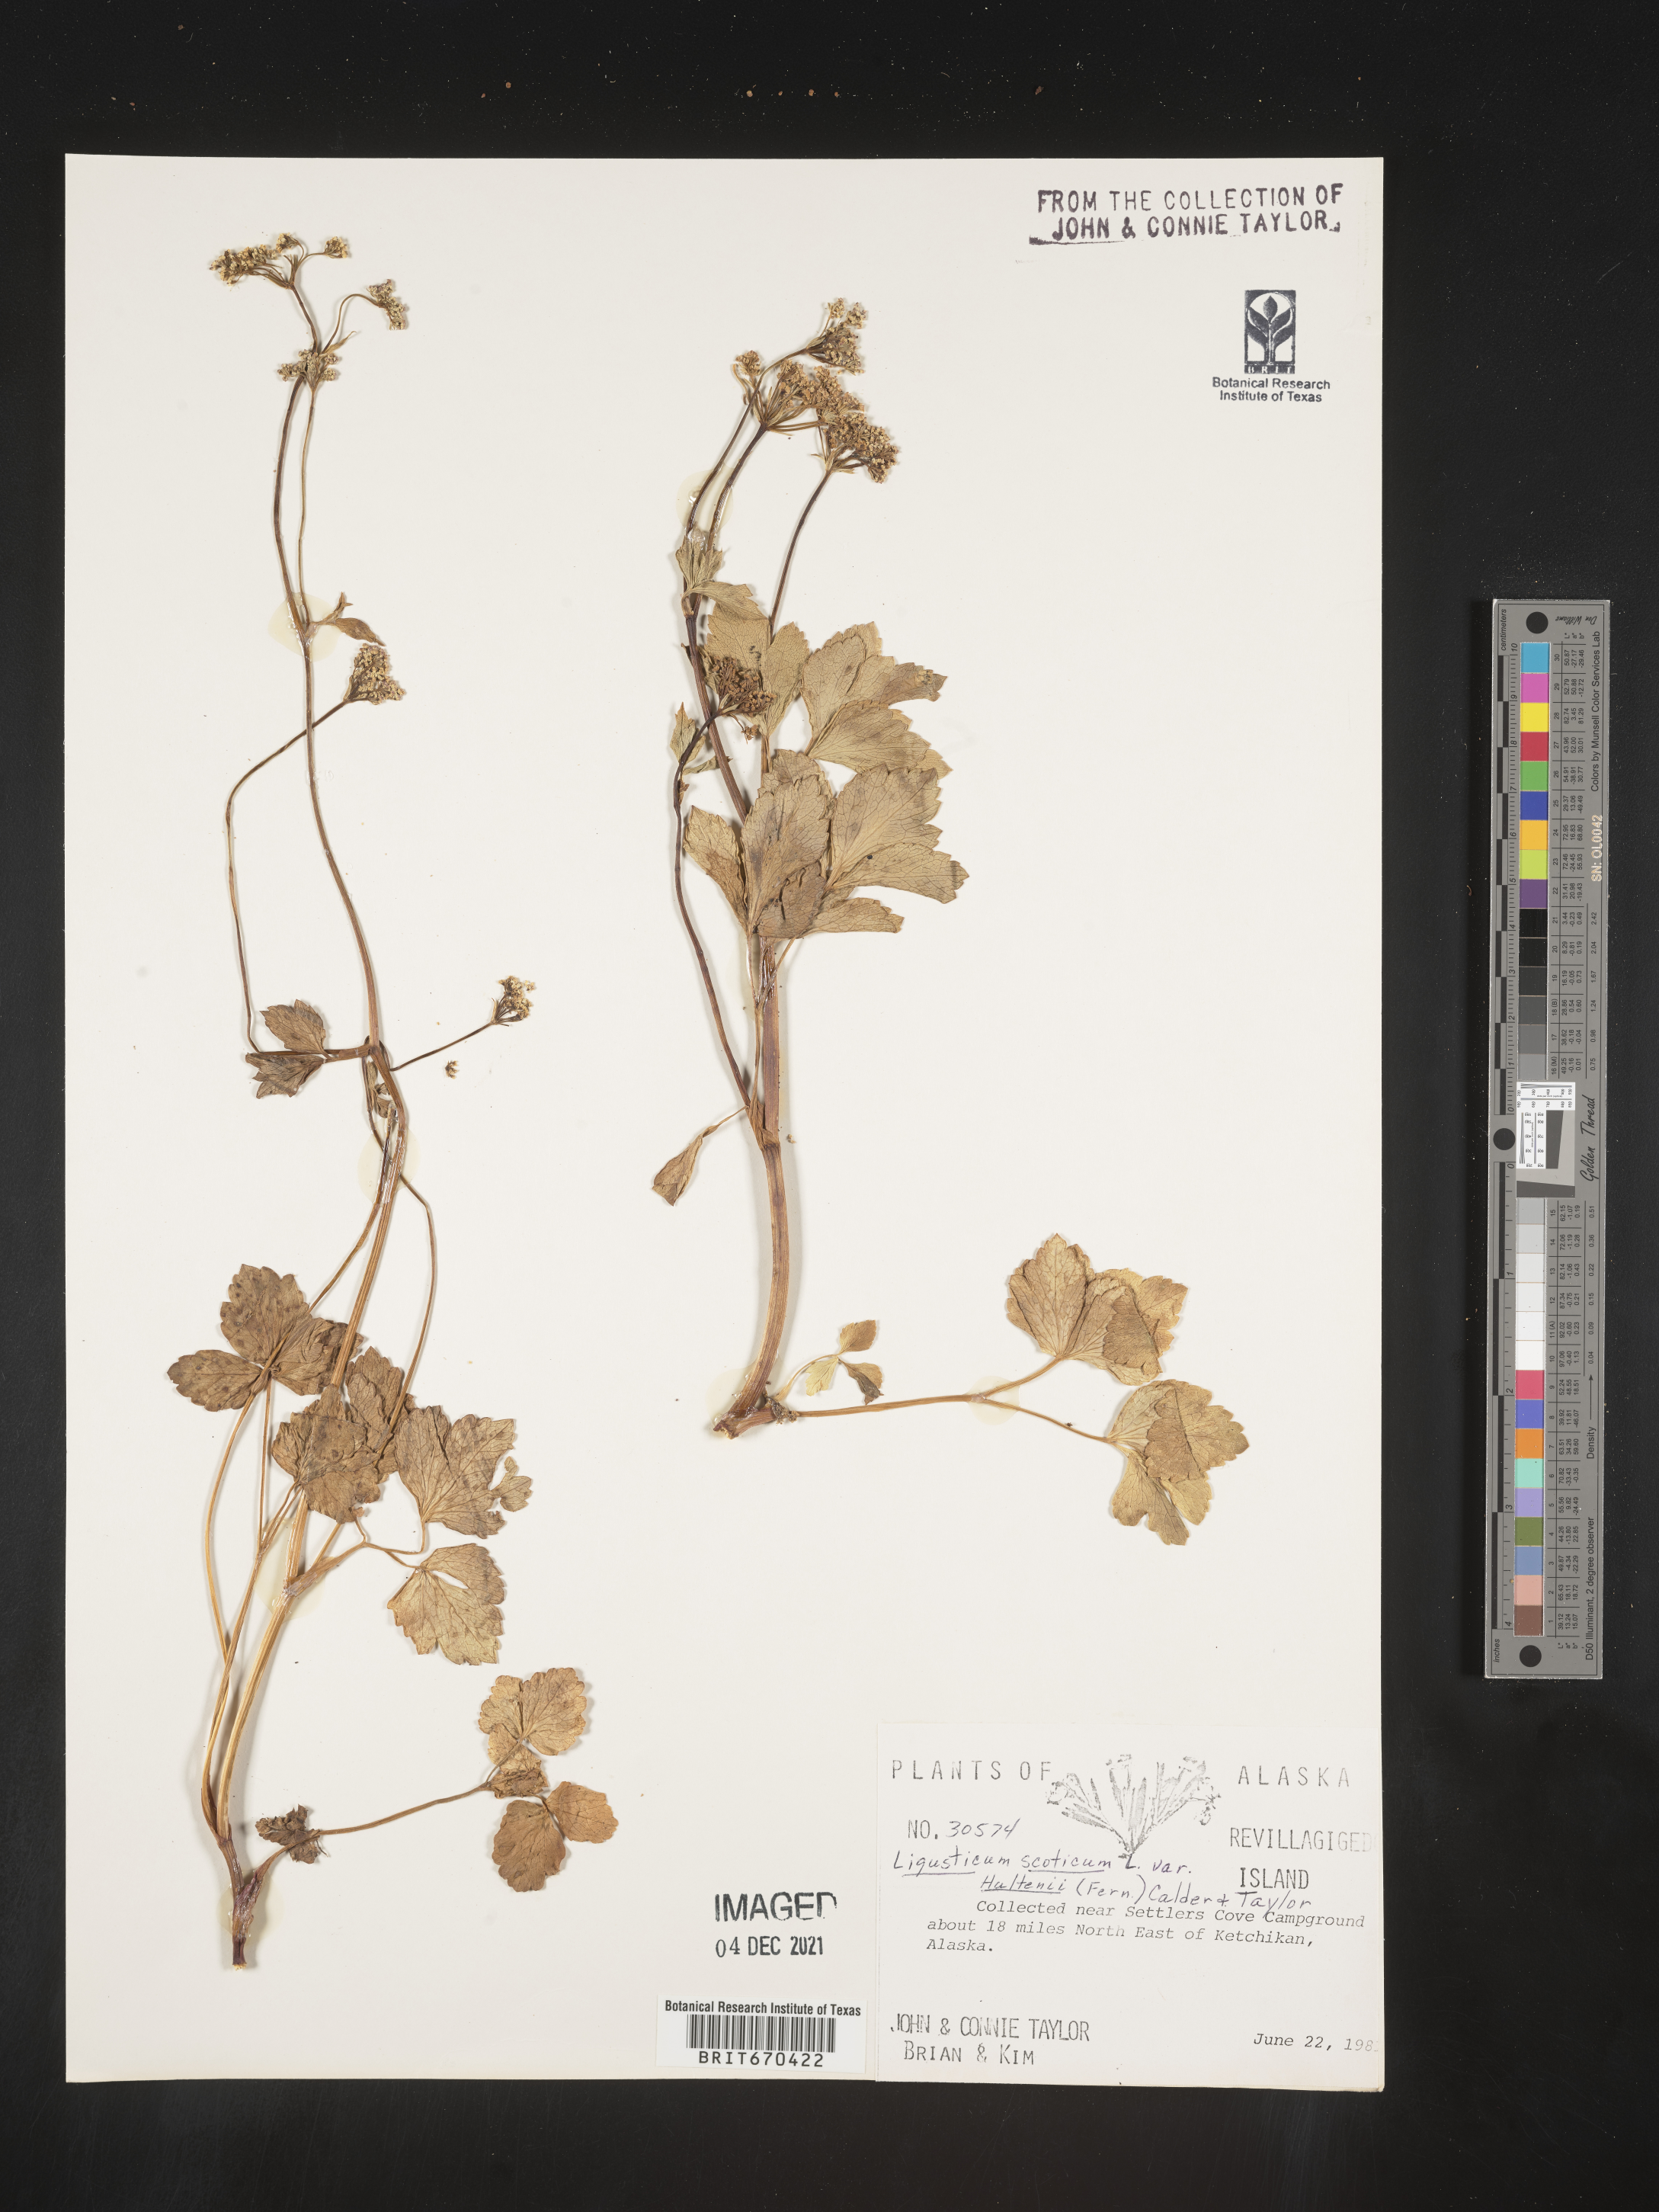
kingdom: Plantae
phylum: Tracheophyta
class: Magnoliopsida
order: Apiales
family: Apiaceae
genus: Ligusticum
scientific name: Ligusticum scothicum
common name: Beach lovage
